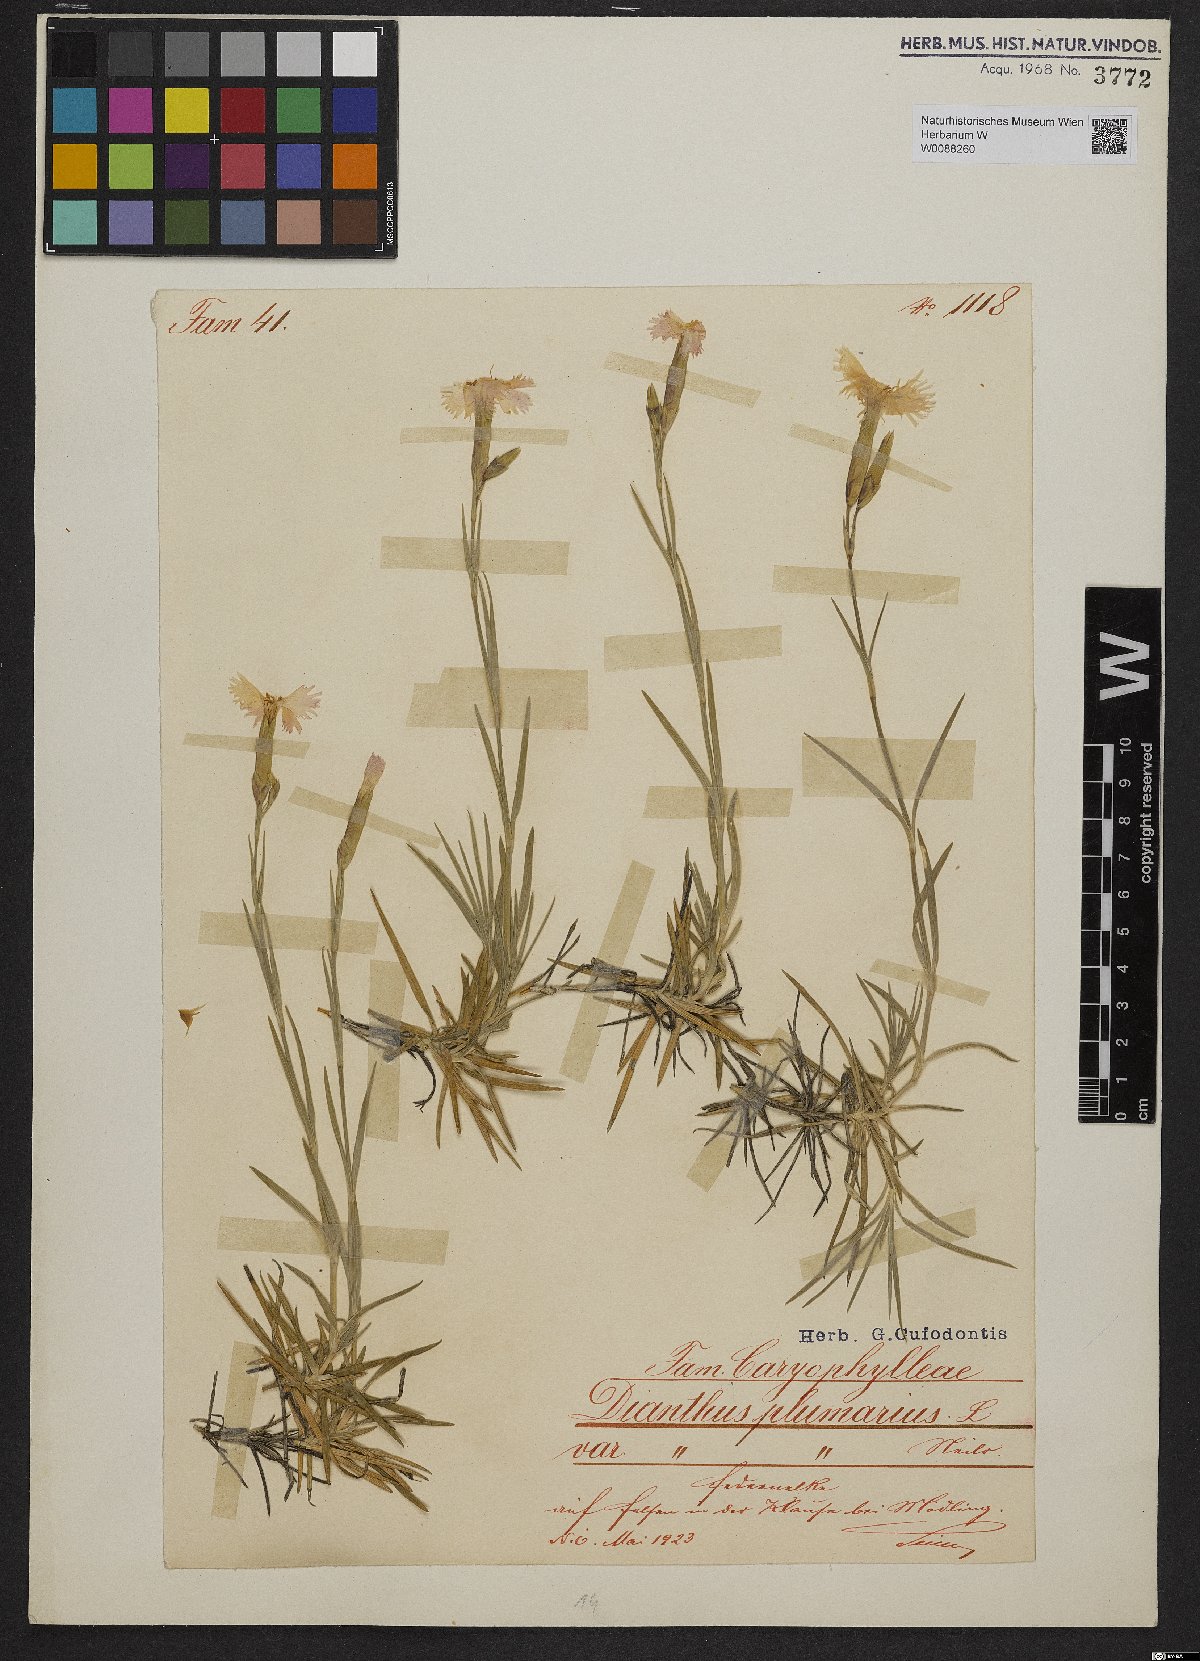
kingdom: Plantae
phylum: Tracheophyta
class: Magnoliopsida
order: Caryophyllales
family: Caryophyllaceae
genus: Dianthus
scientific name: Dianthus plumarius
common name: Pink
